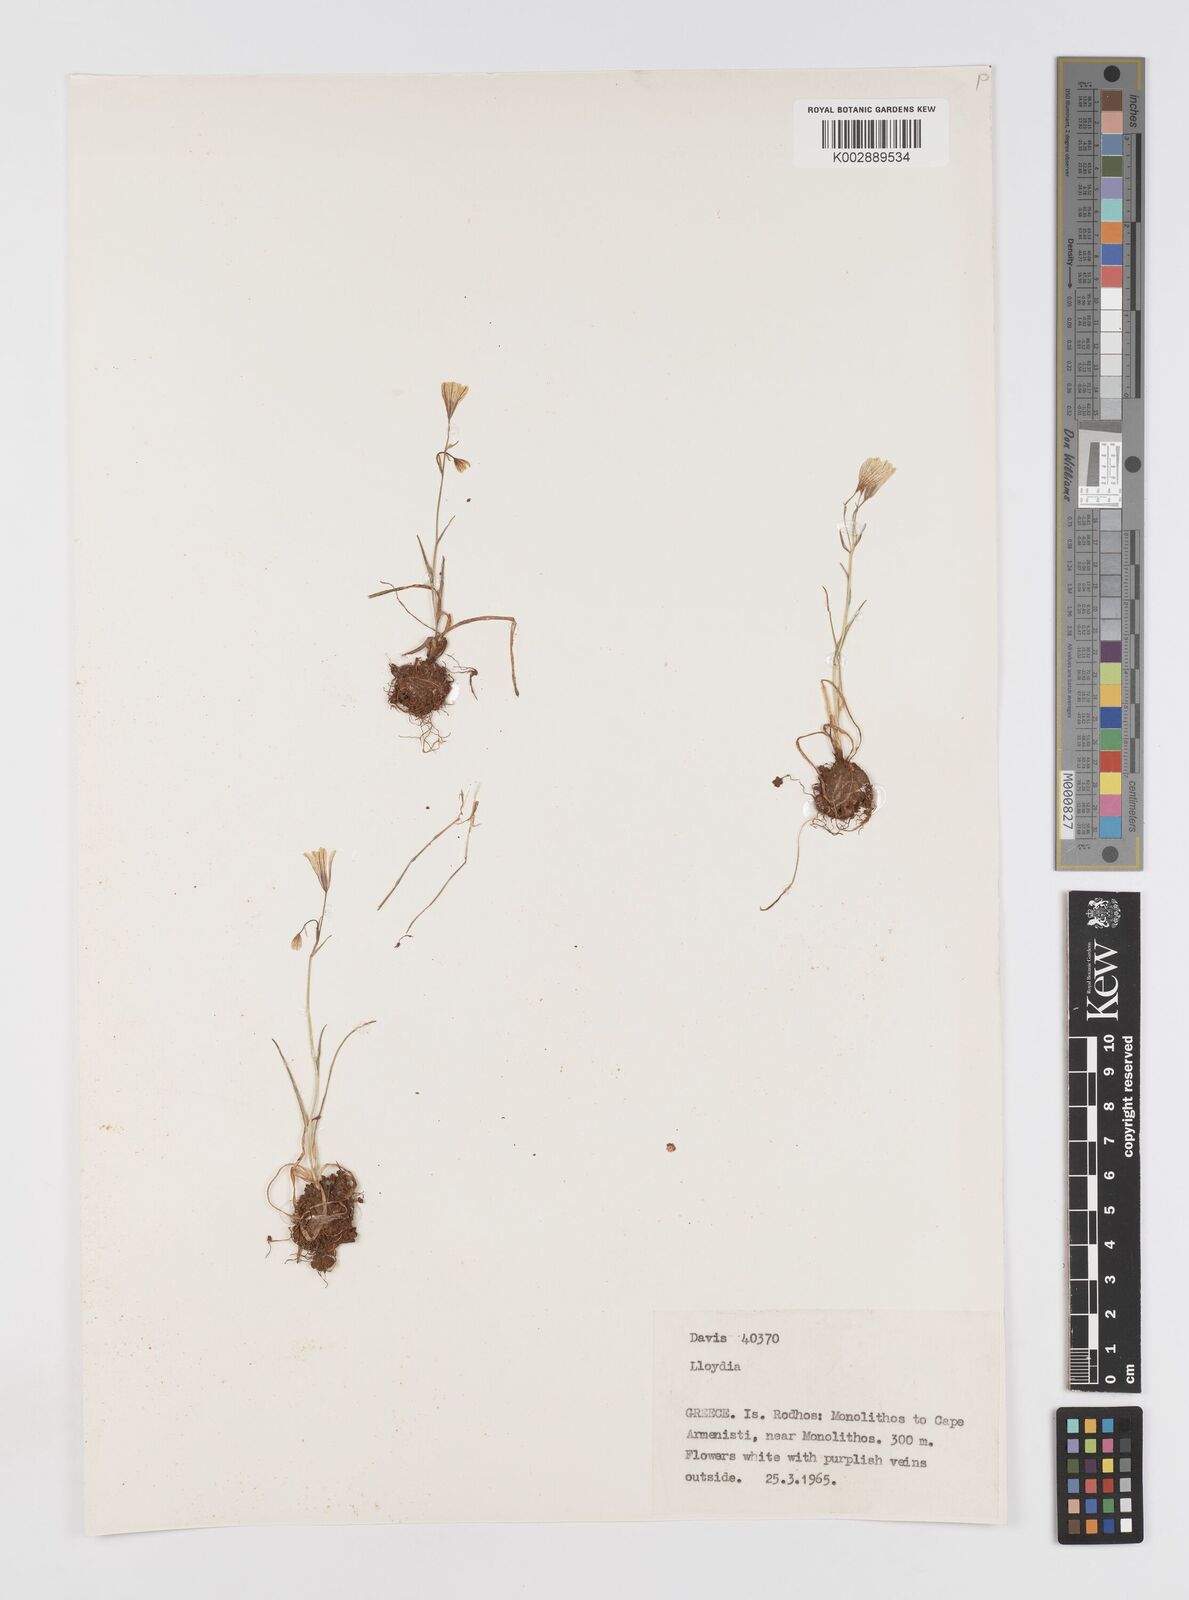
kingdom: Plantae
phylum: Tracheophyta
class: Liliopsida
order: Liliales
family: Liliaceae
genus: Gagea
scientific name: Gagea
